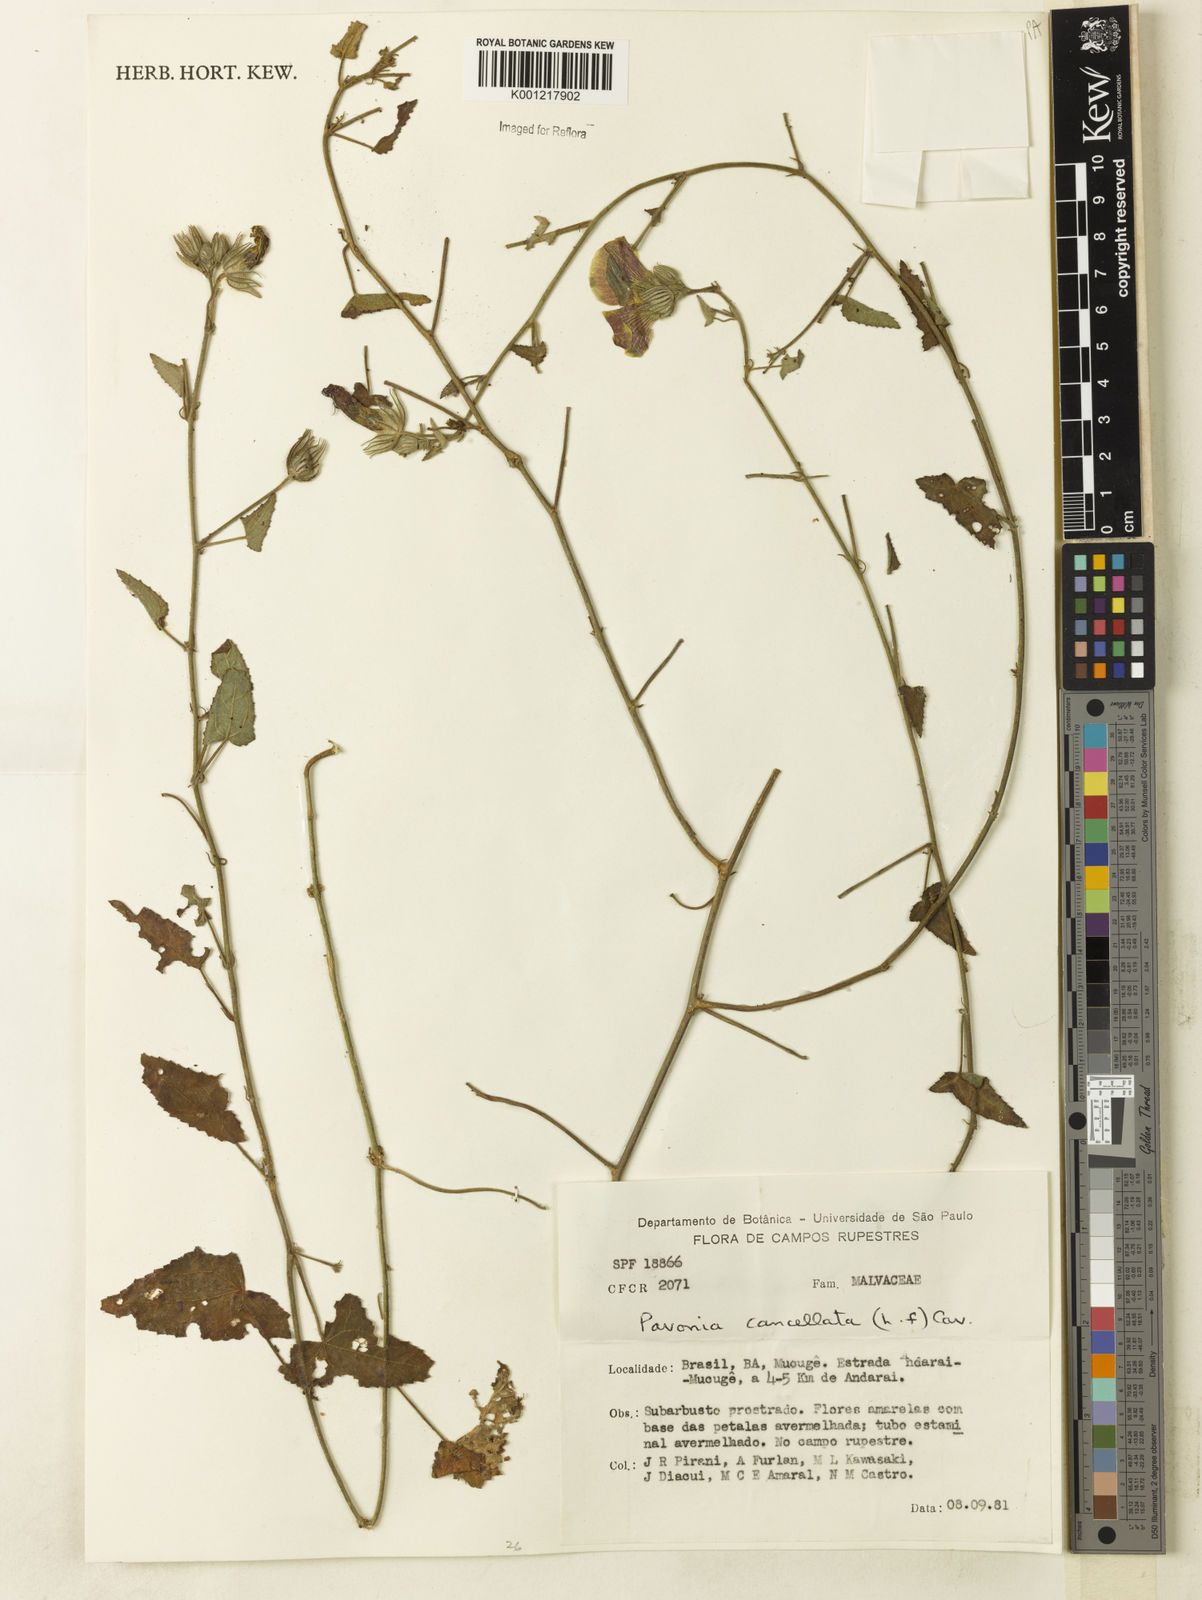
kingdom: Plantae
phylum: Tracheophyta
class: Magnoliopsida
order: Malvales
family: Malvaceae
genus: Pavonia
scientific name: Pavonia cancellata
